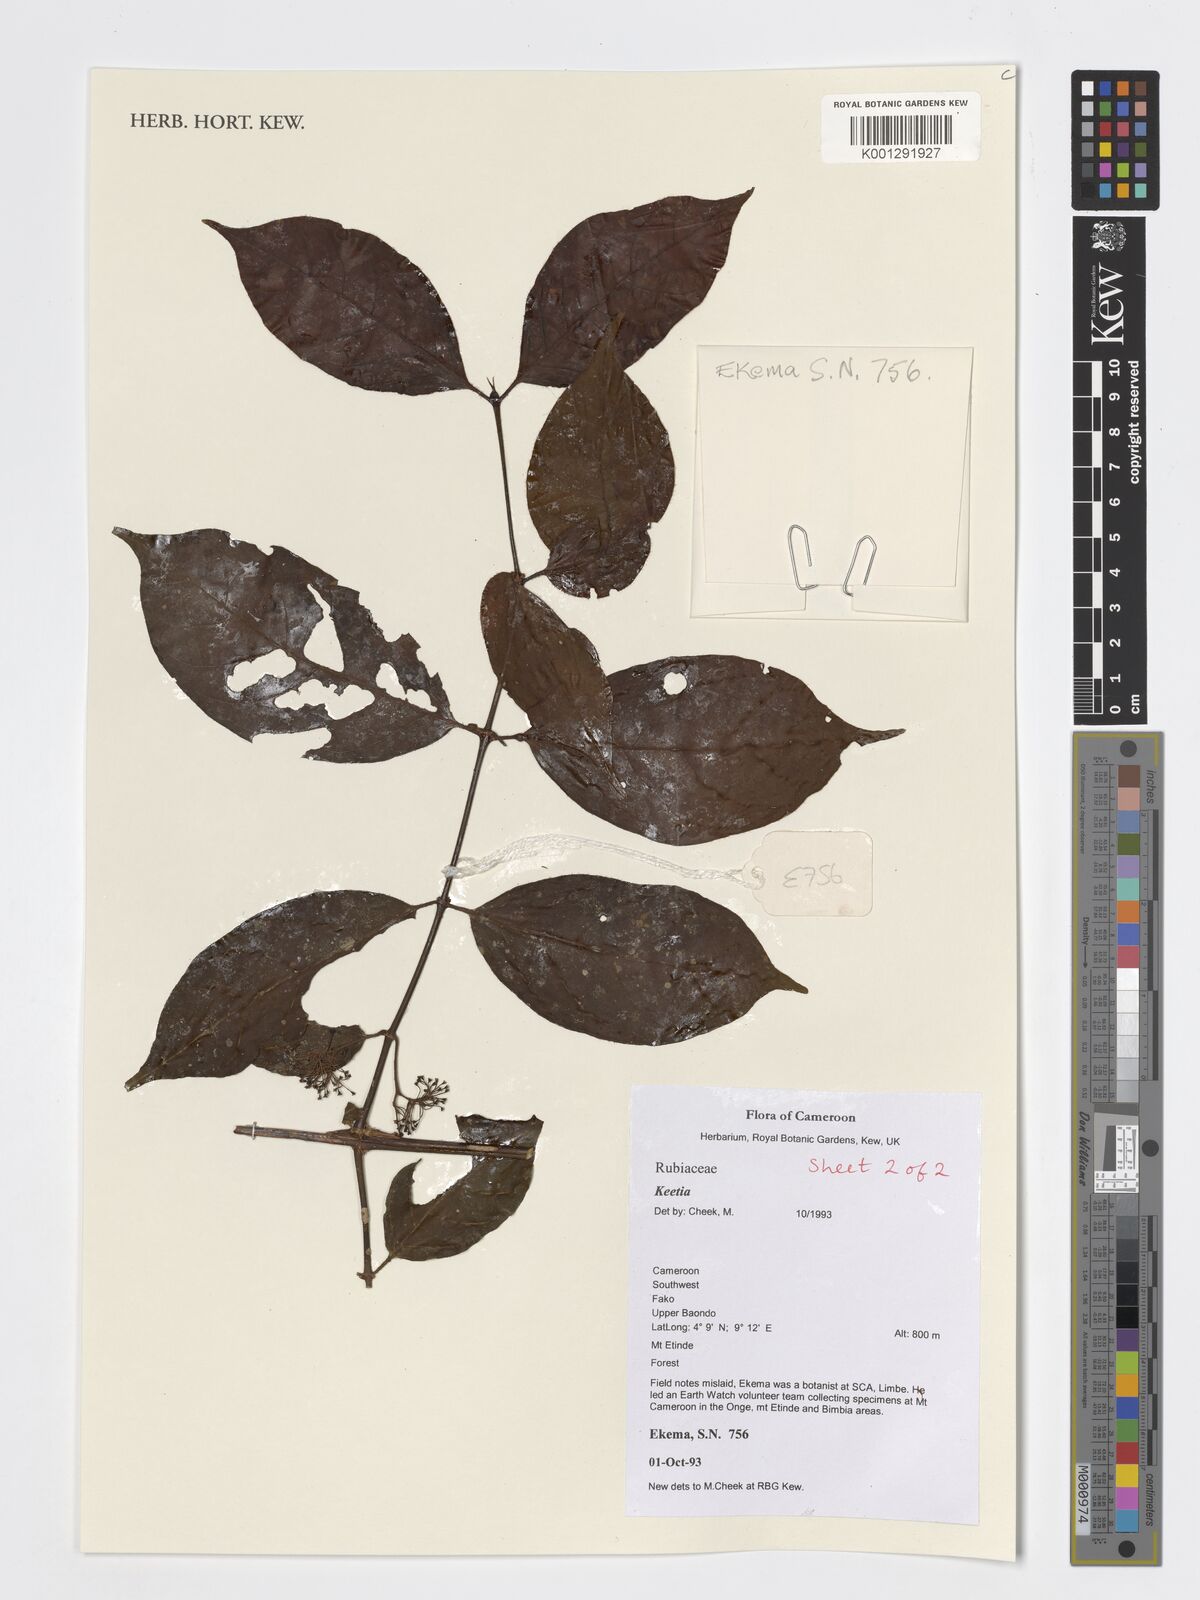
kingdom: Plantae
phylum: Tracheophyta
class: Magnoliopsida
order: Gentianales
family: Rubiaceae
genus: Keetia
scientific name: Keetia
